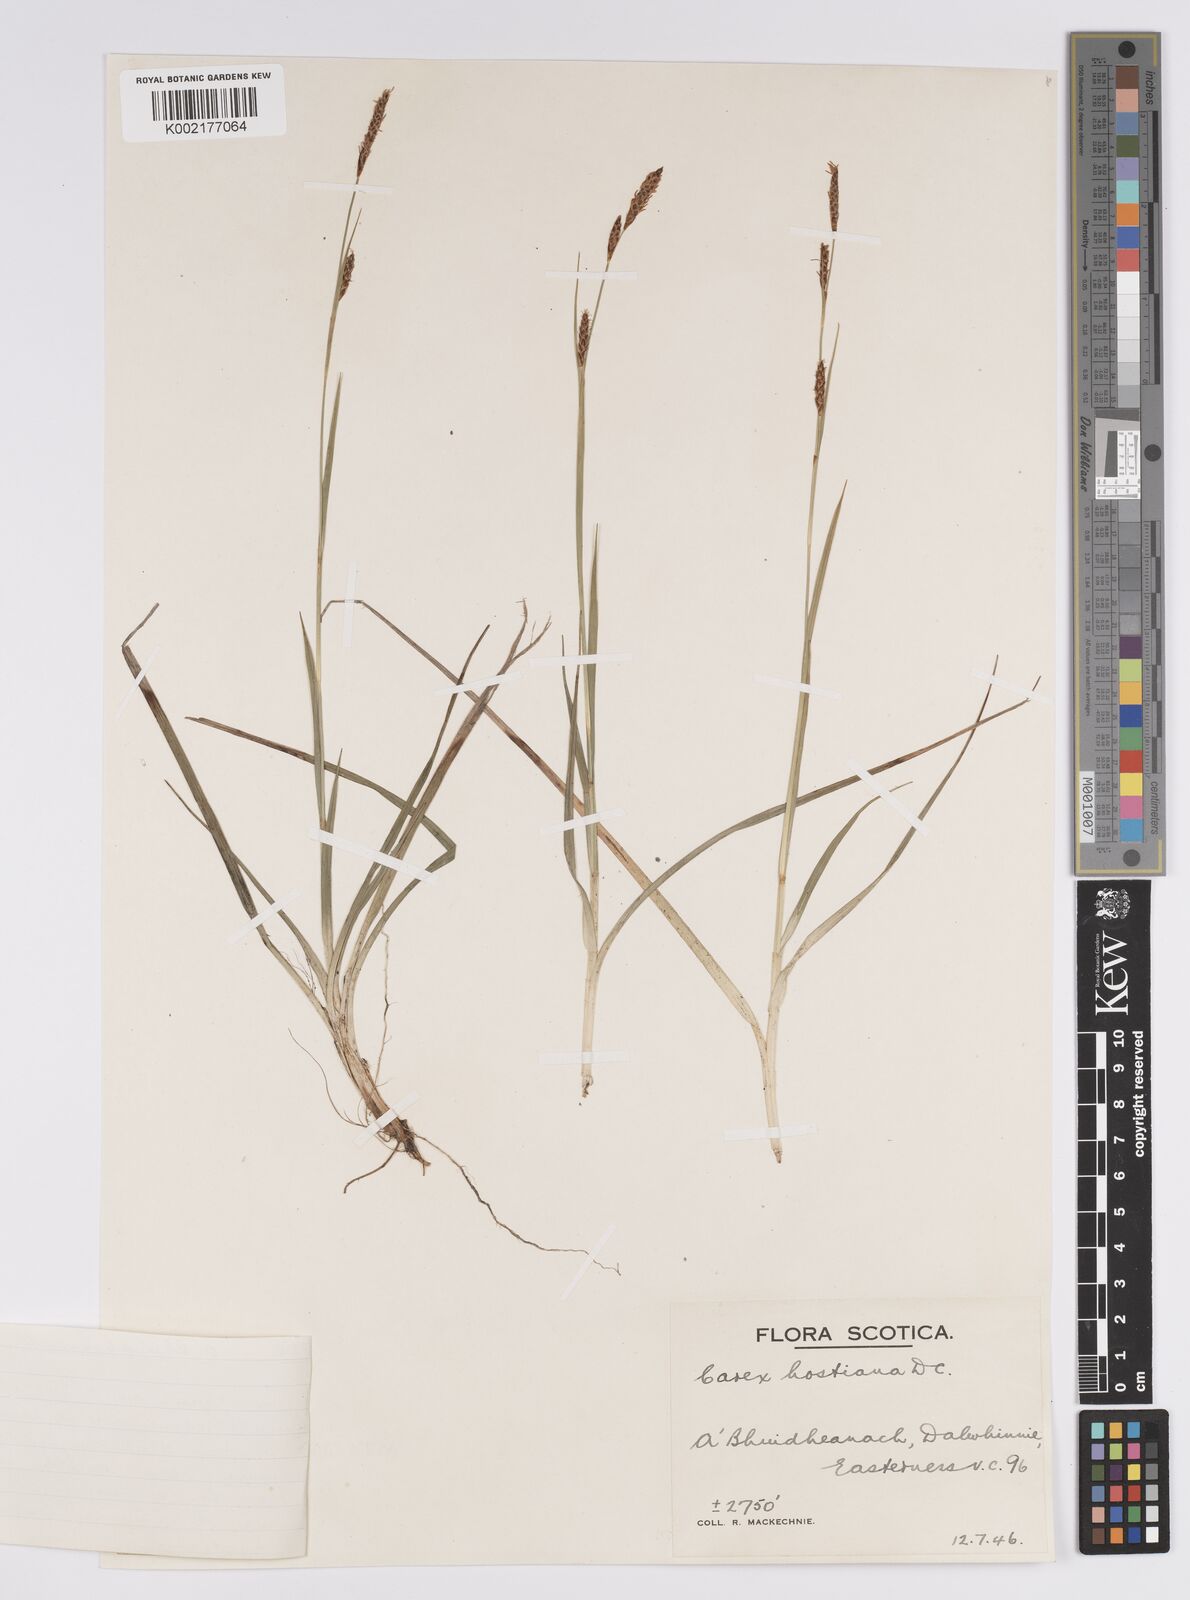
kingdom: Plantae
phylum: Tracheophyta
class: Liliopsida
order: Poales
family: Cyperaceae
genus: Carex
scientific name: Carex hostiana
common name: Tawny sedge
